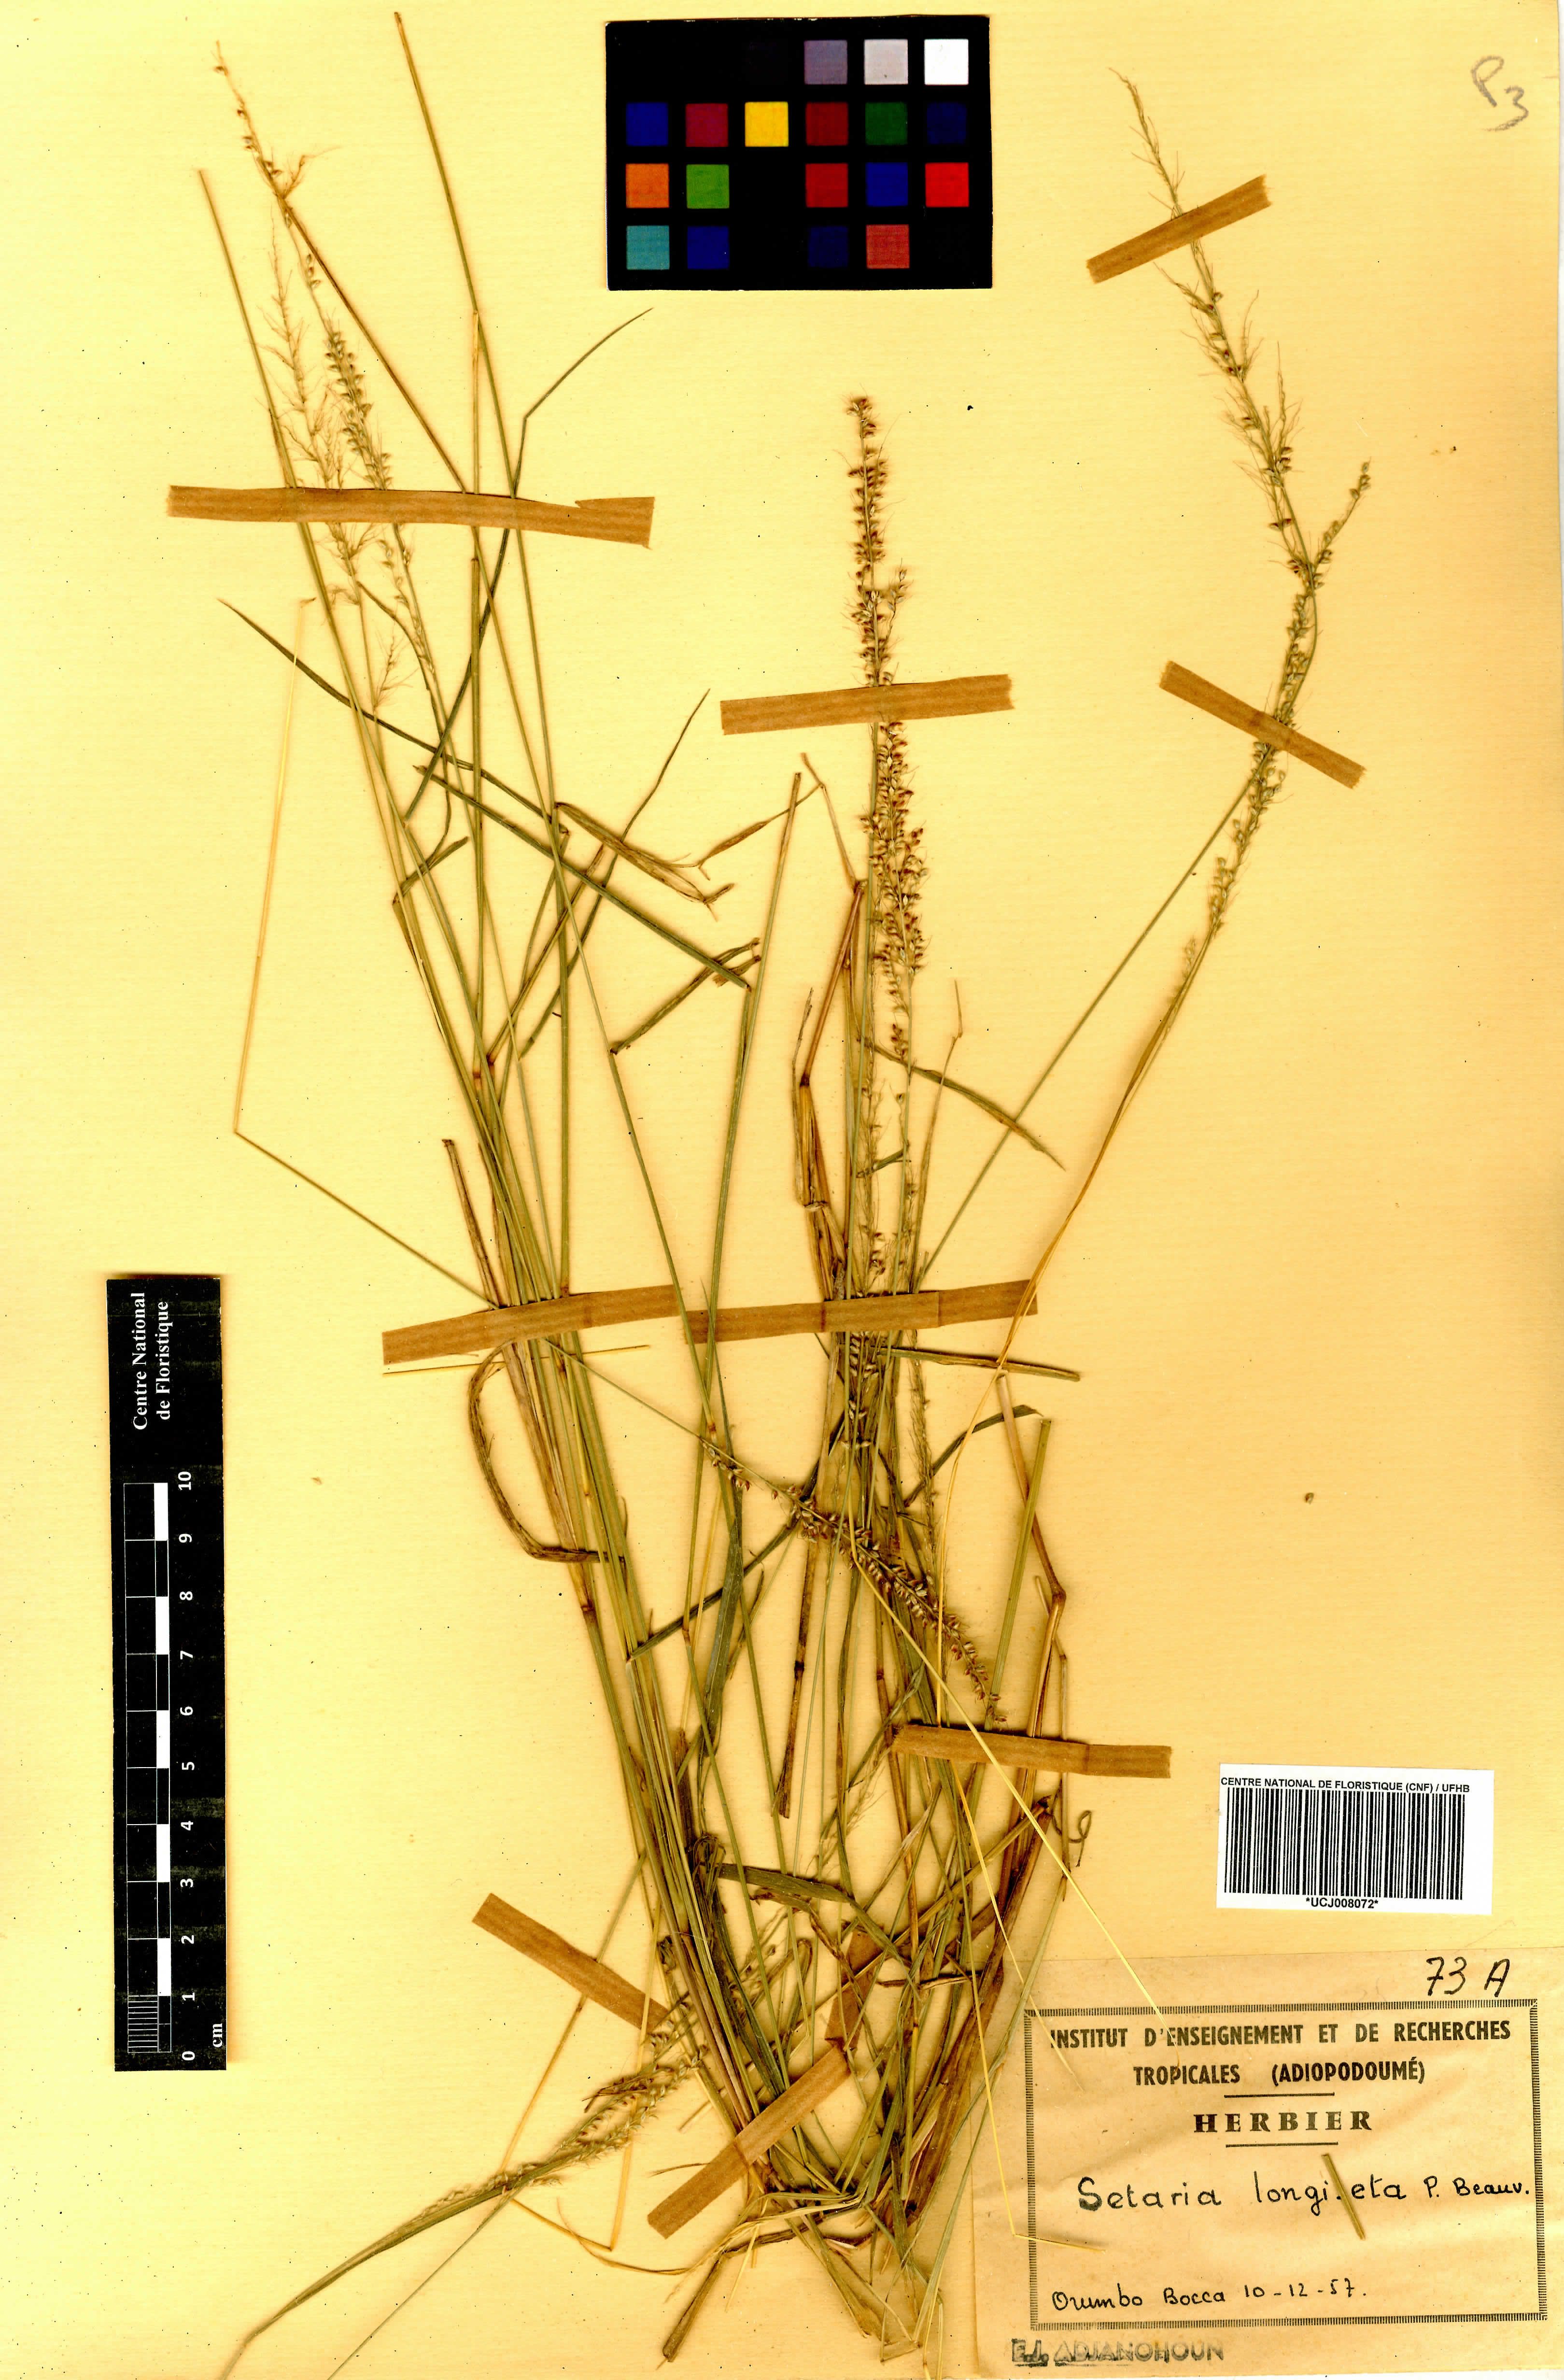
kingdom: Plantae
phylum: Tracheophyta
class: Liliopsida
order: Poales
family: Poaceae
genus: Setaria
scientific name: Setaria longiseta
